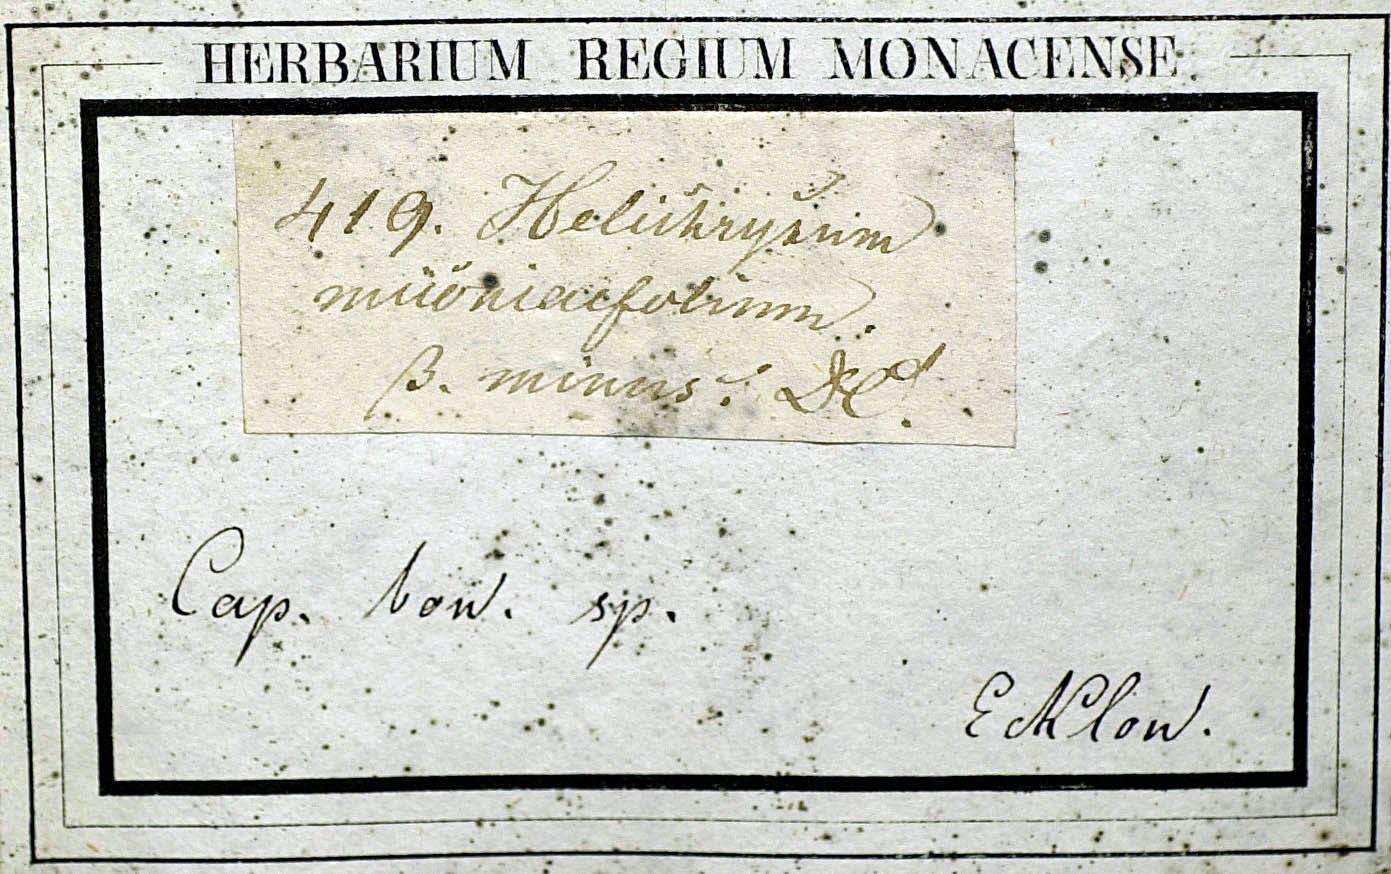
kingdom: Plantae
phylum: Tracheophyta
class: Magnoliopsida
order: Asterales
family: Asteraceae
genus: Helichrysum
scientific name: Helichrysum miconiifolium
